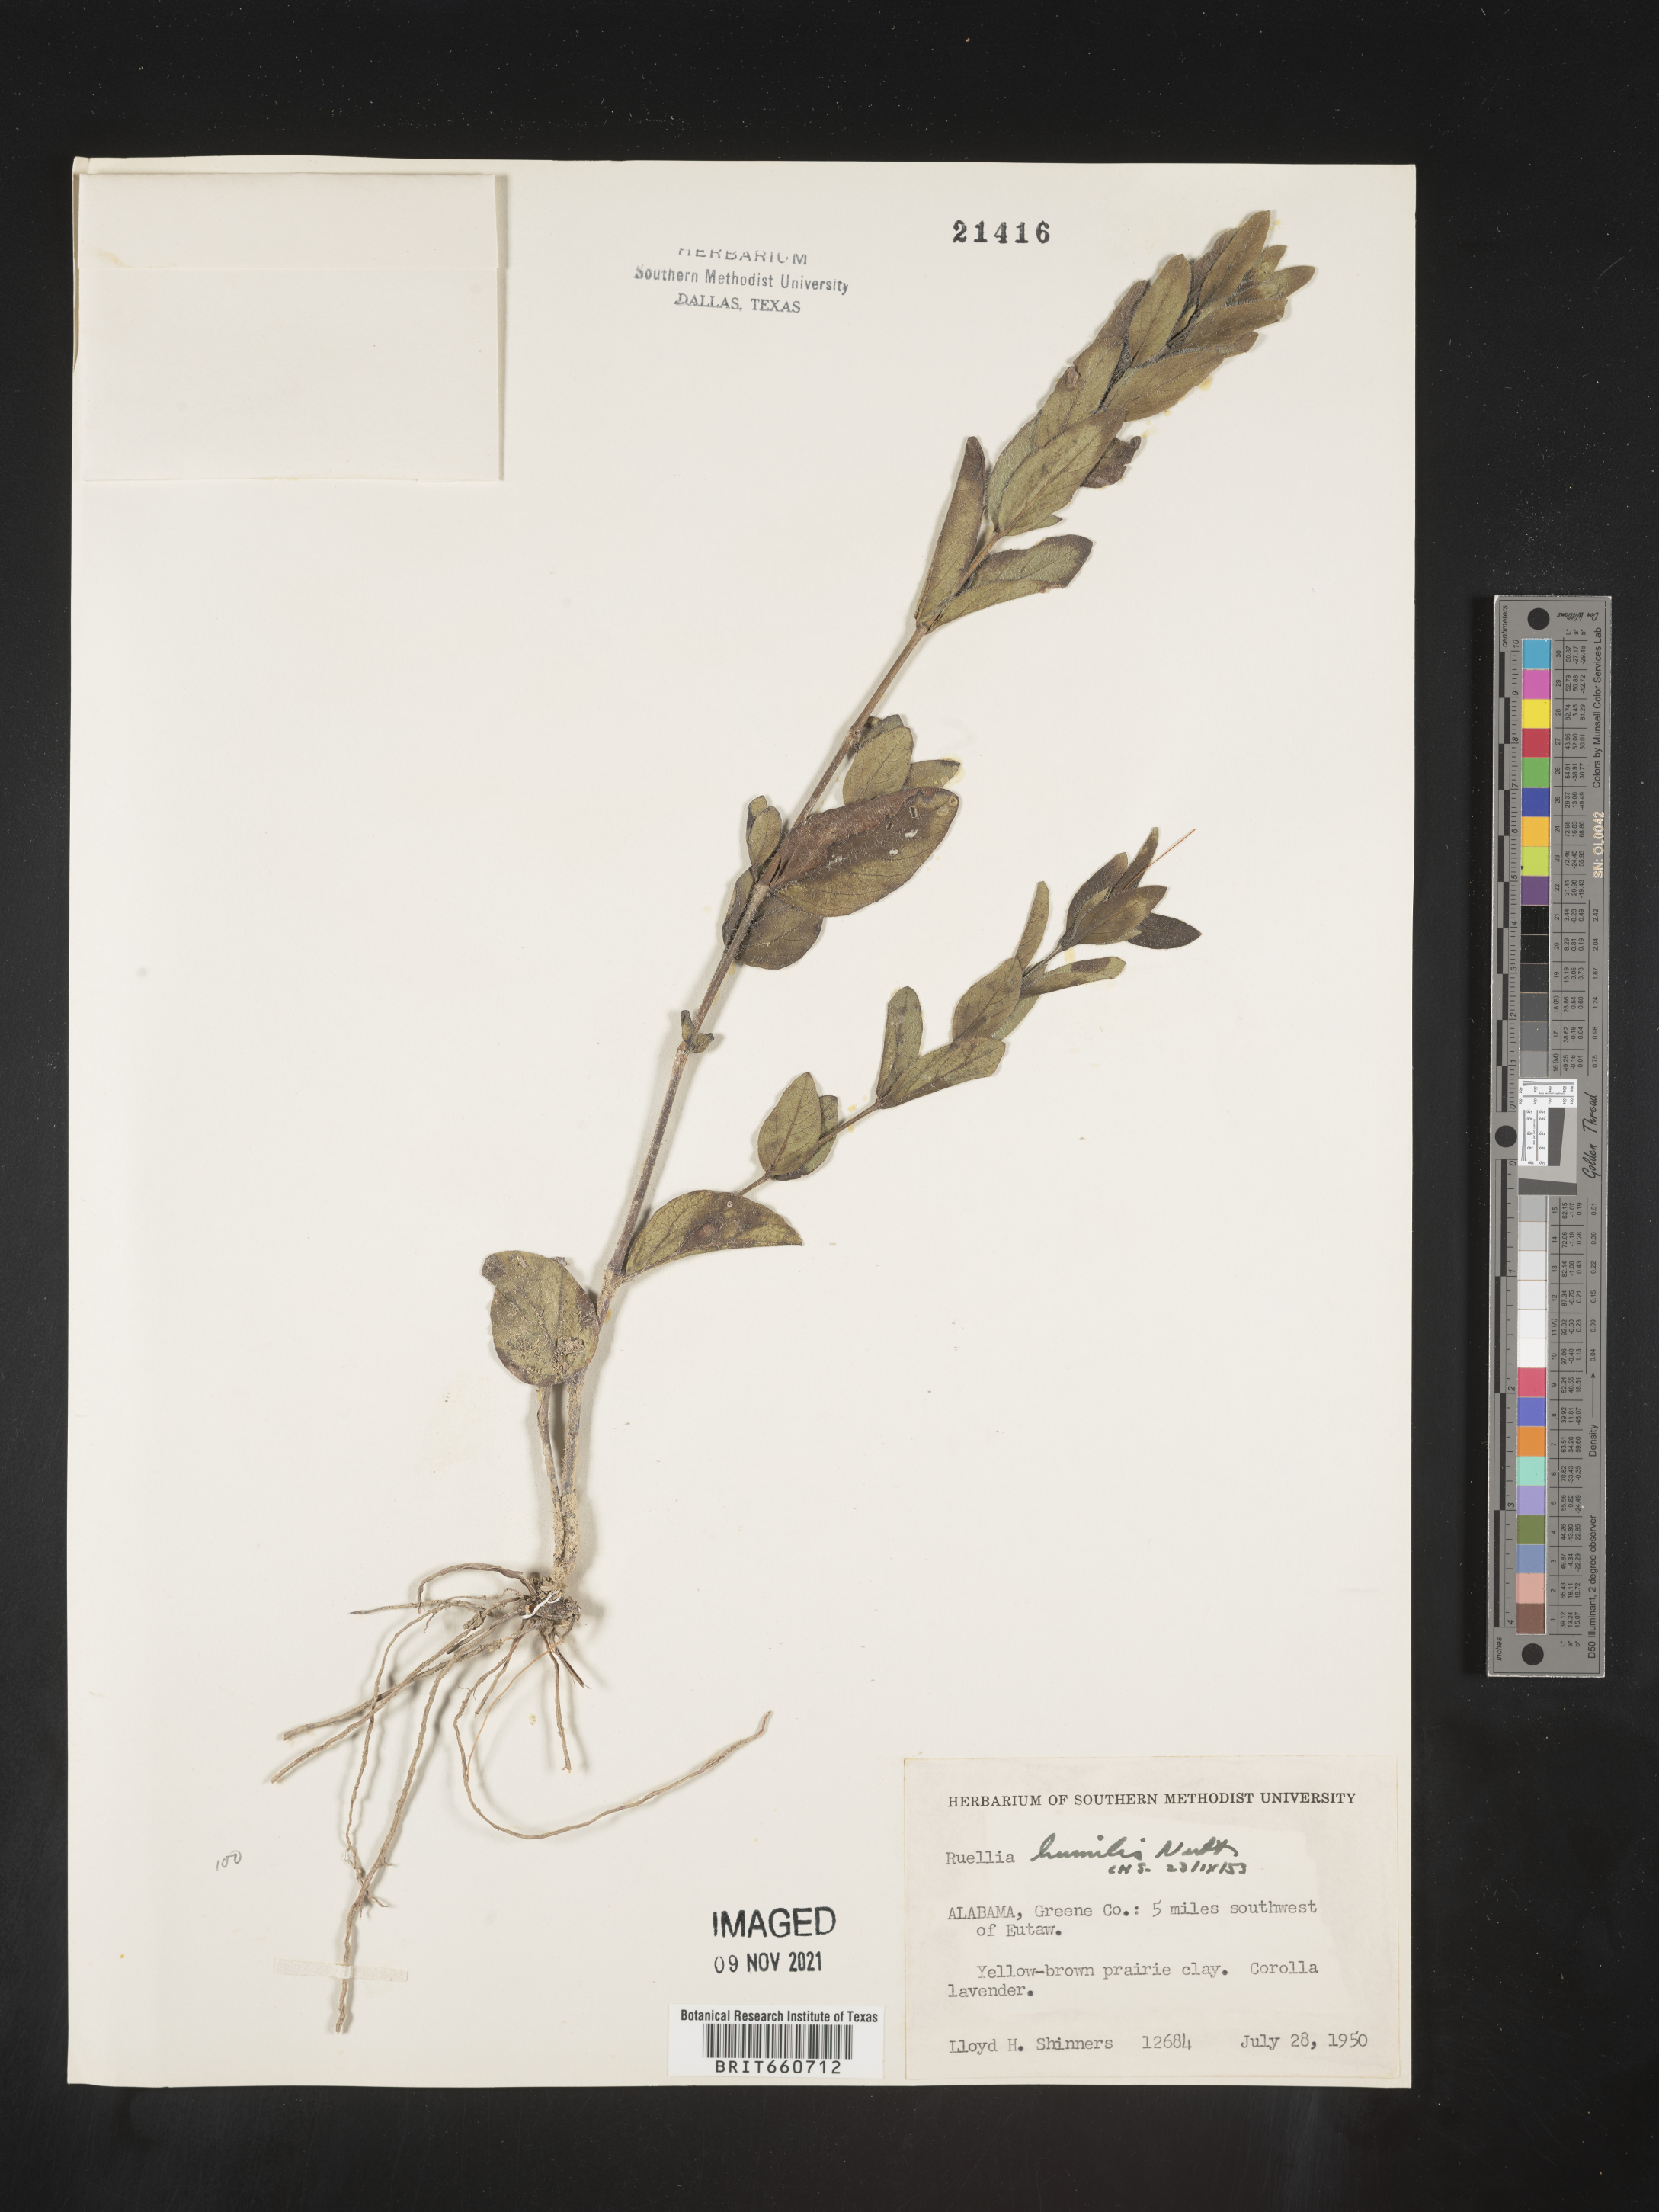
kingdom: Plantae
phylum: Tracheophyta
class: Magnoliopsida
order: Lamiales
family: Acanthaceae
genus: Ruellia
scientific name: Ruellia humilis
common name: Fringe-leaf ruellia
